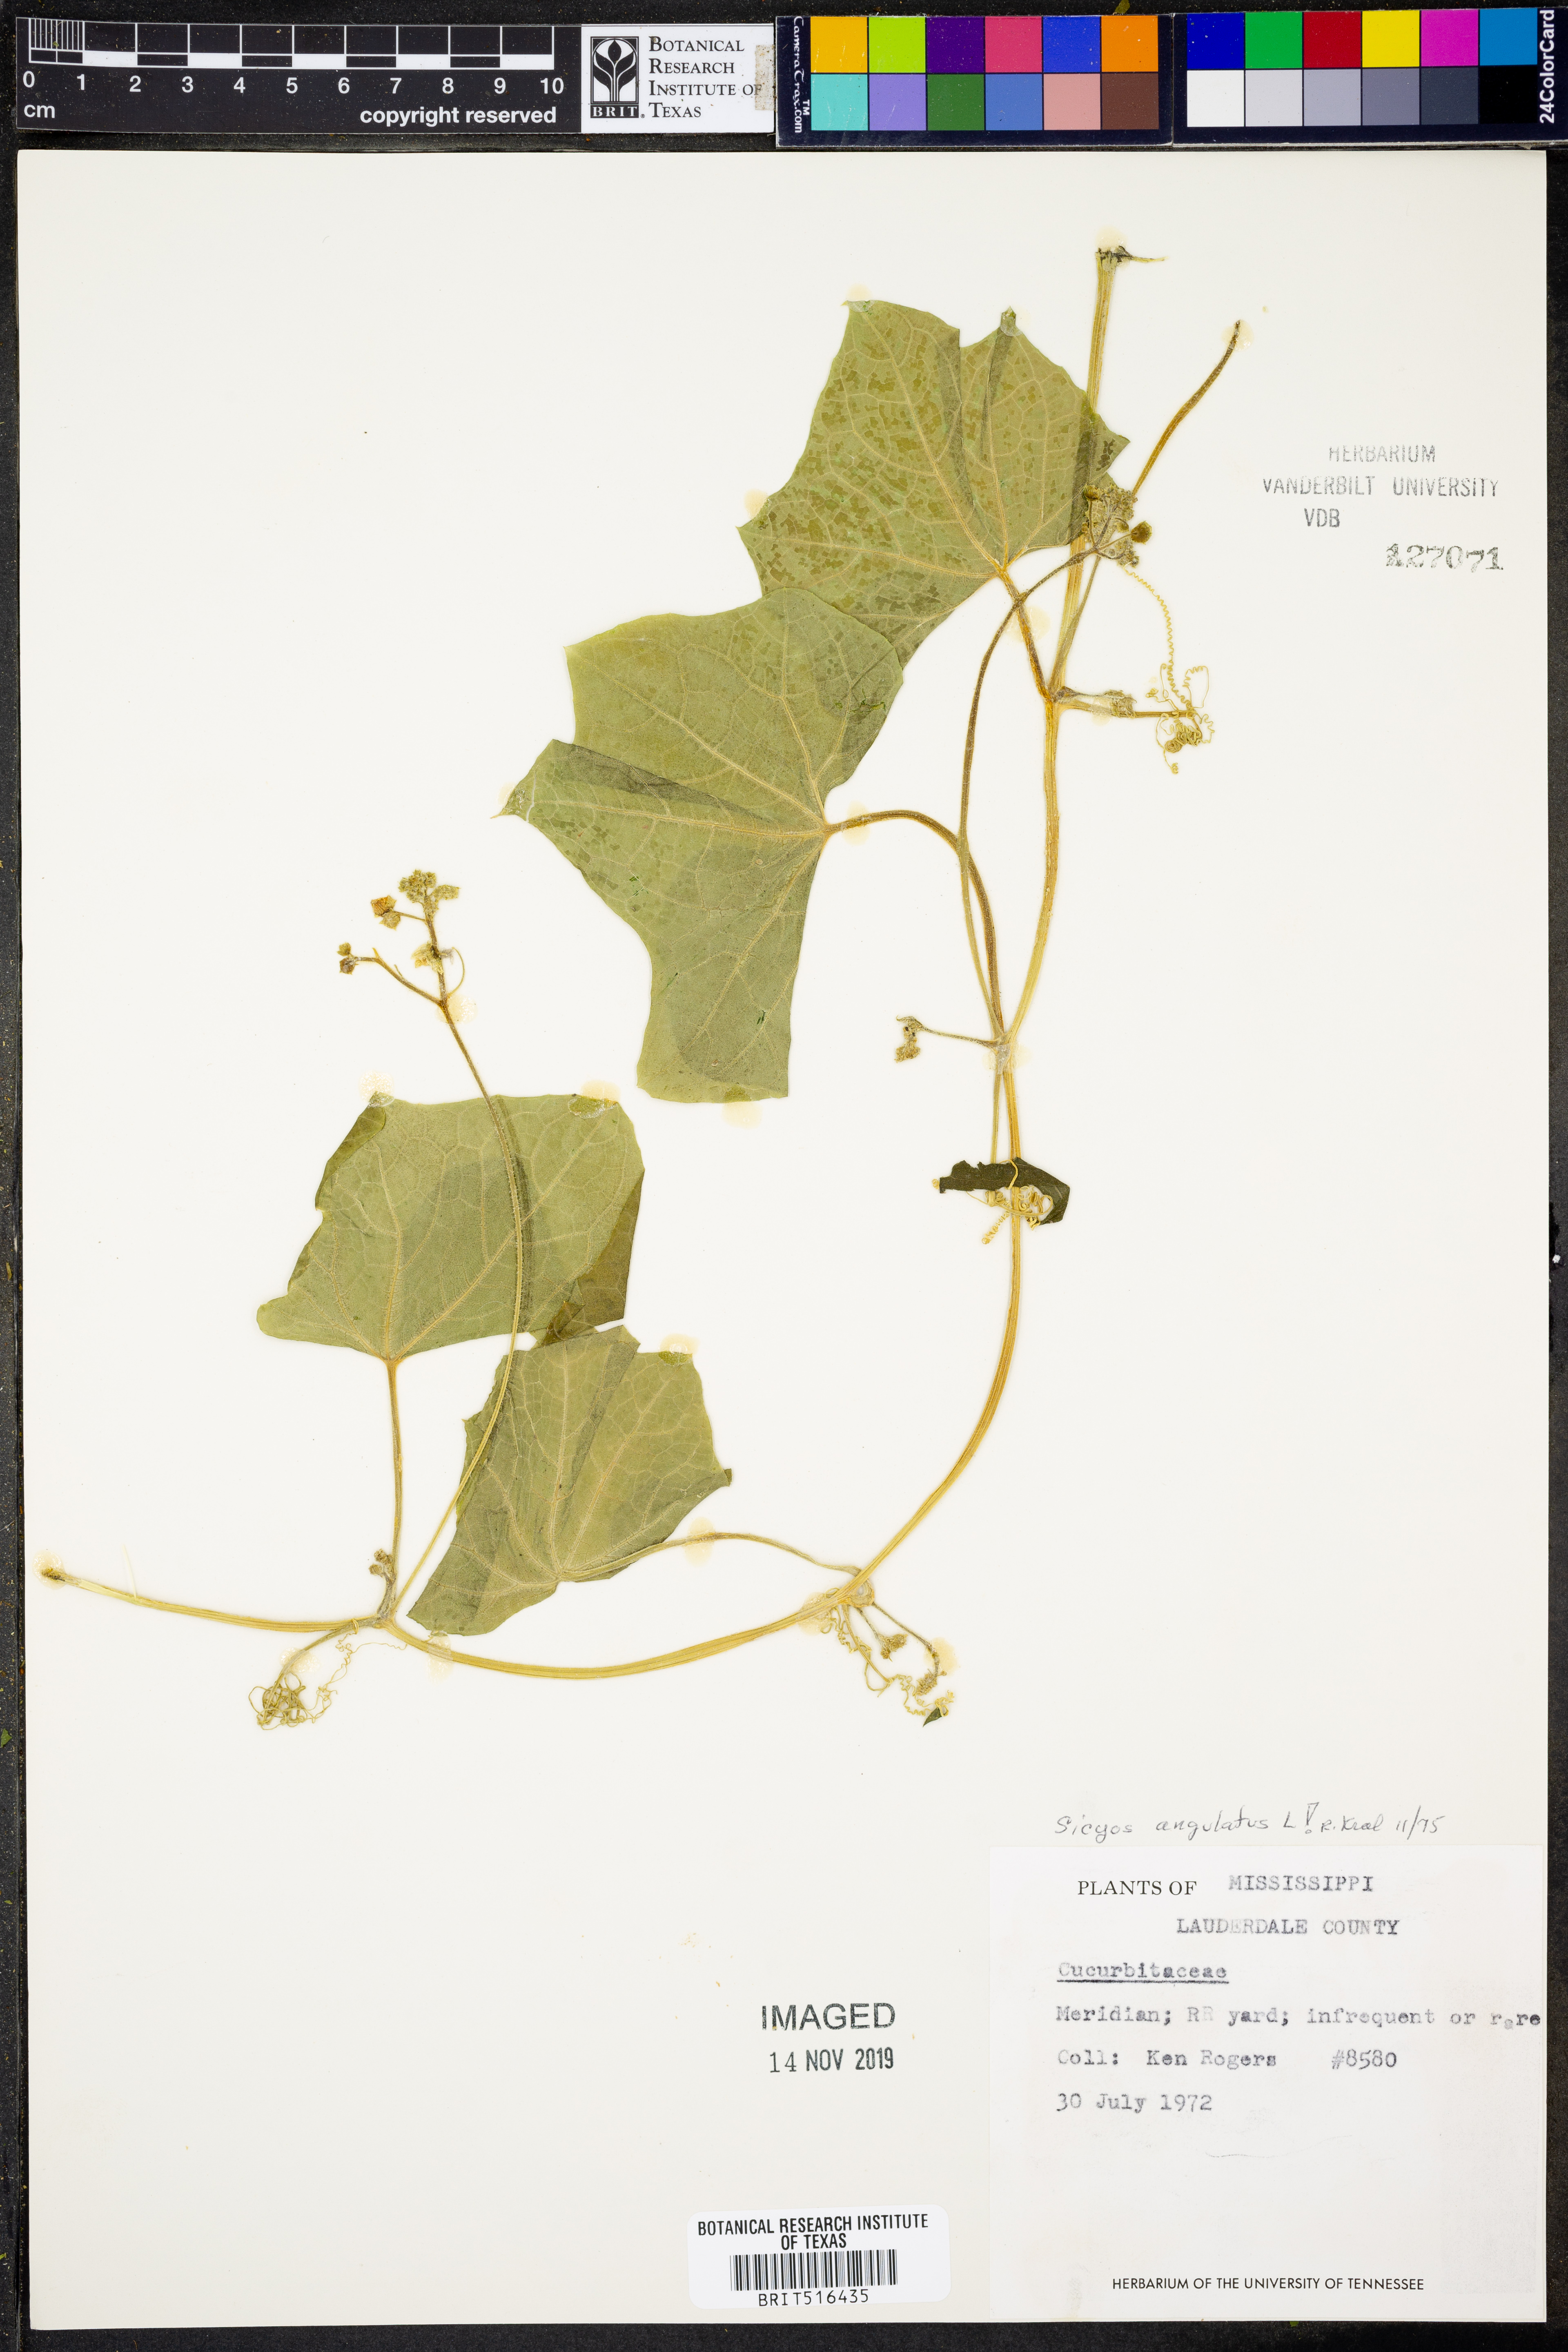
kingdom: Plantae
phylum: Tracheophyta
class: Magnoliopsida
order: Cucurbitales
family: Cucurbitaceae
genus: Sicyos
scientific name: Sicyos angulatus
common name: Angled burr cucumber
